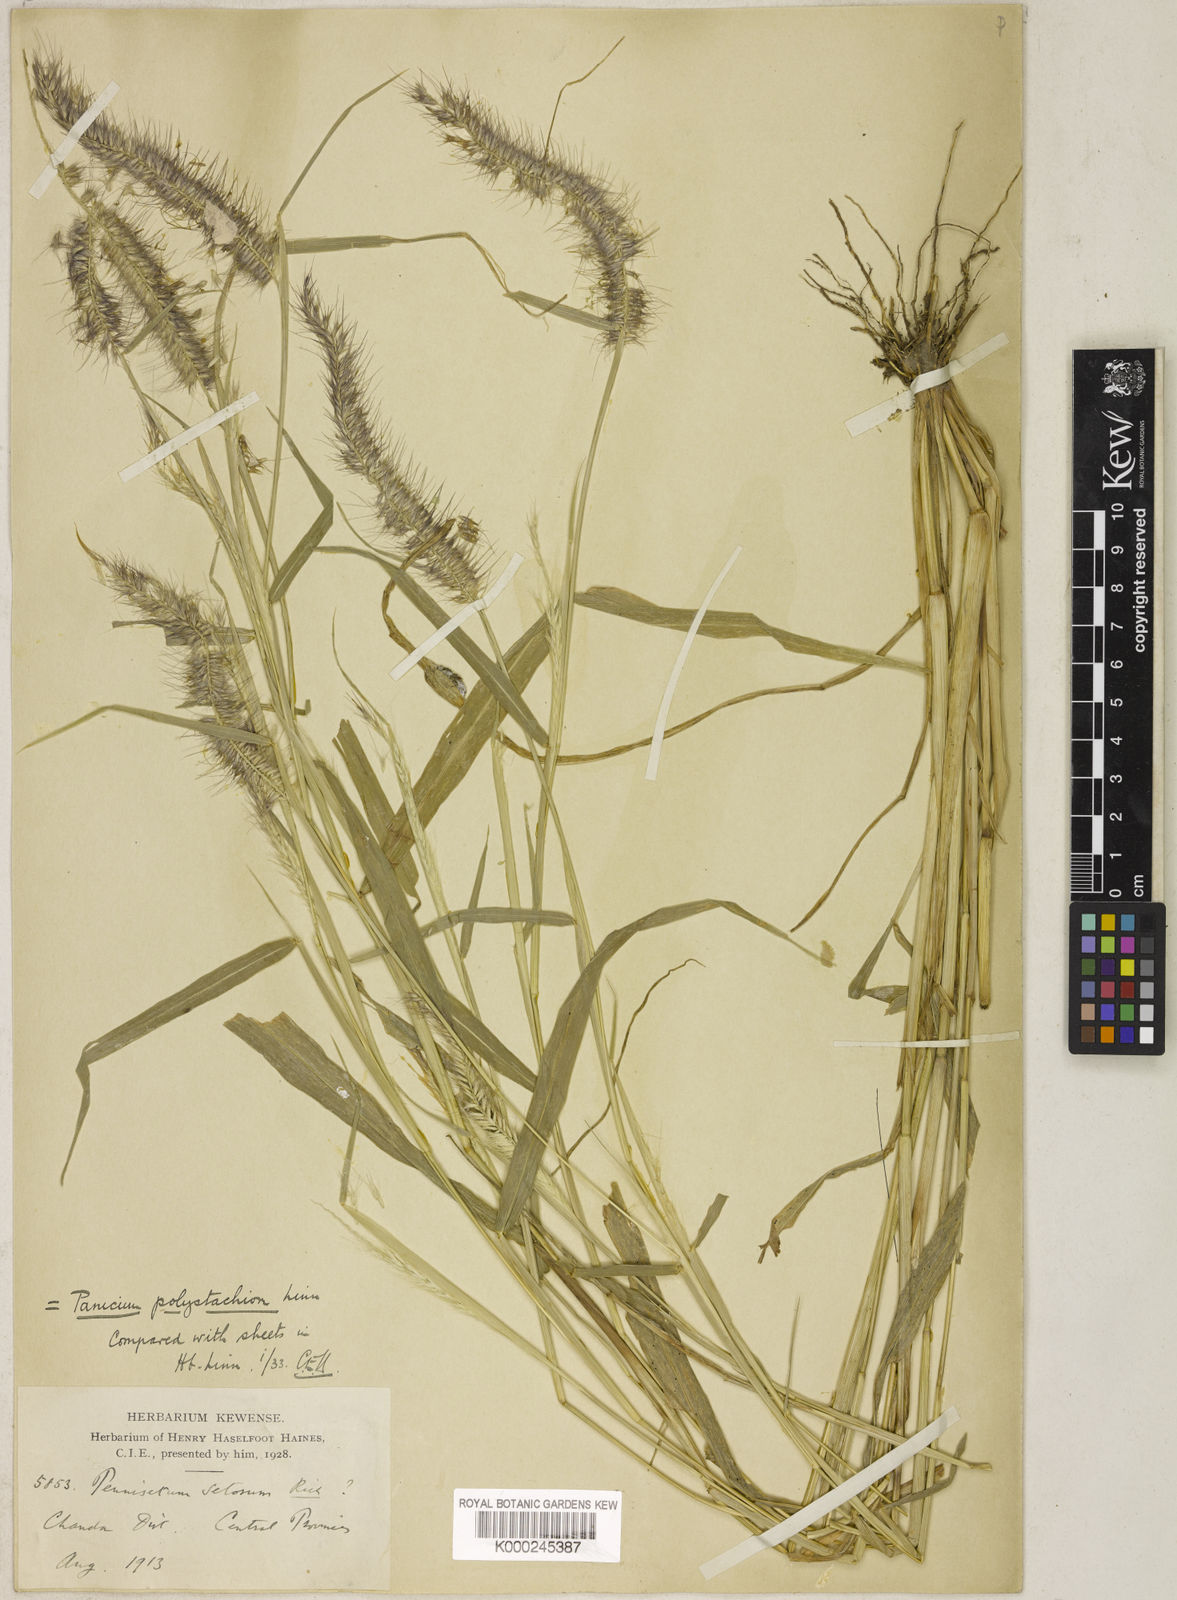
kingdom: Plantae
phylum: Tracheophyta
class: Liliopsida
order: Poales
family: Poaceae
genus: Setaria
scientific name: Setaria parviflora
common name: Knotroot bristle-grass
